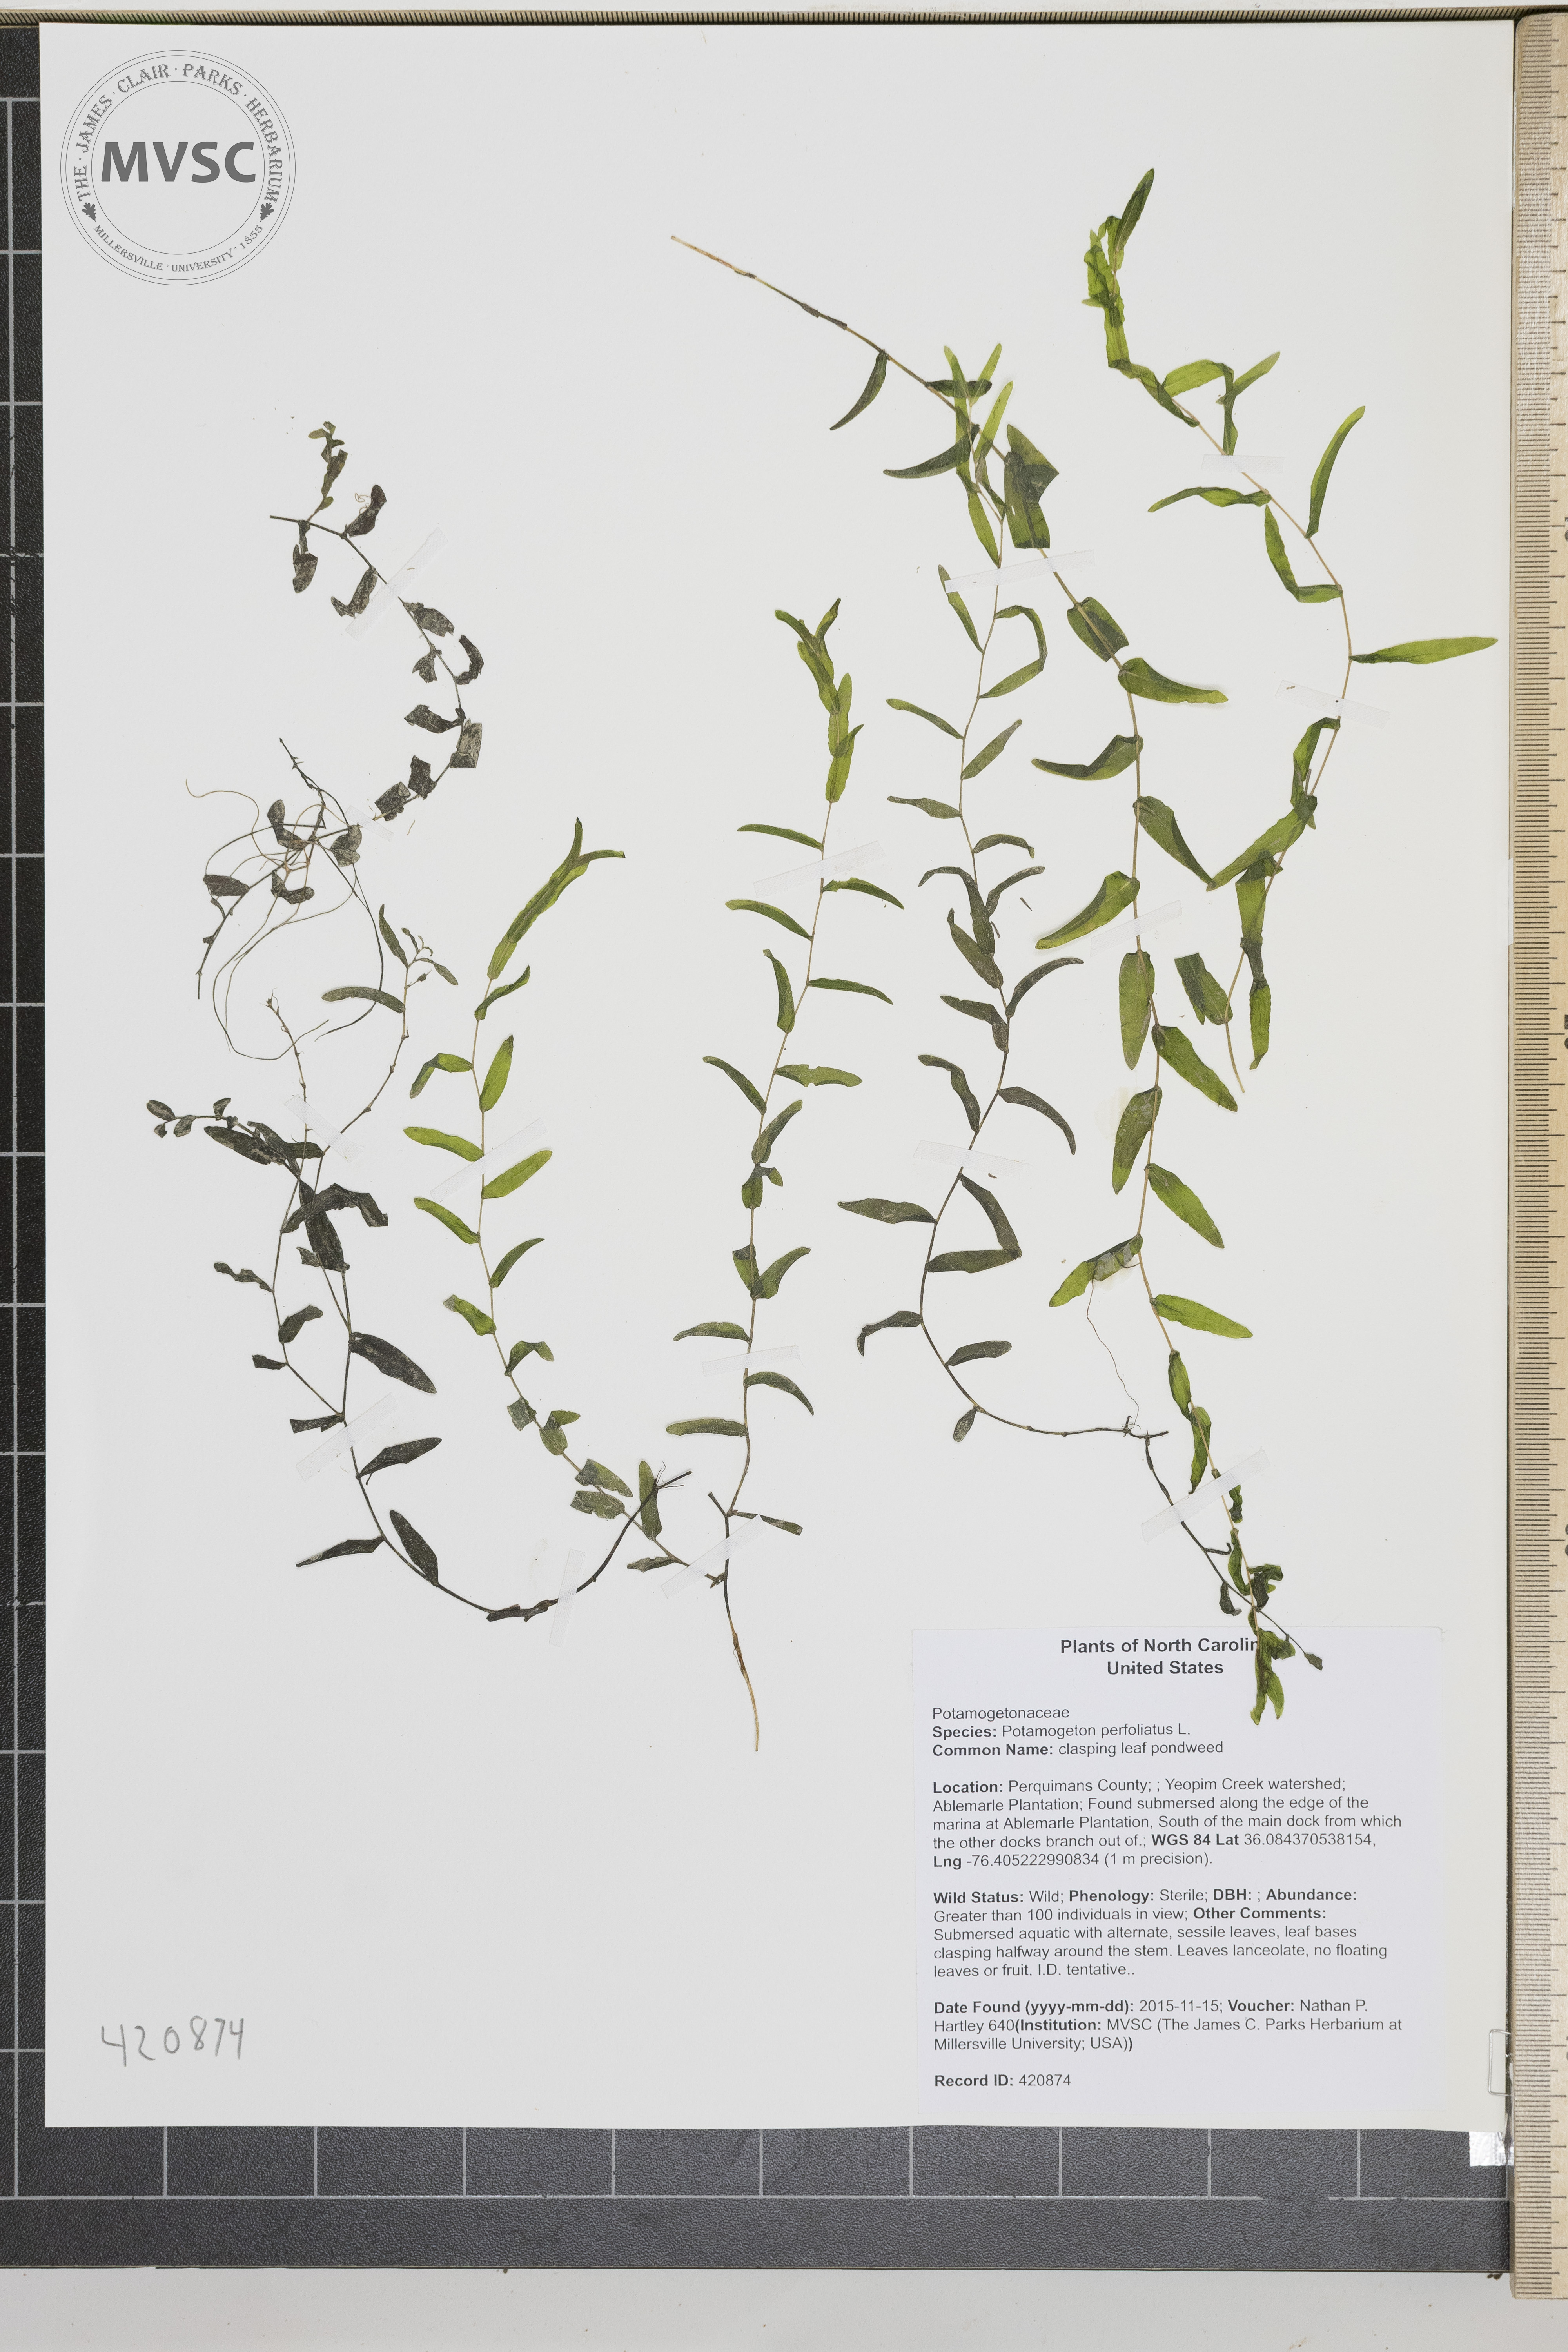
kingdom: Plantae
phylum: Tracheophyta
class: Liliopsida
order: Alismatales
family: Potamogetonaceae
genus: Potamogeton
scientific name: Potamogeton perfoliatus
